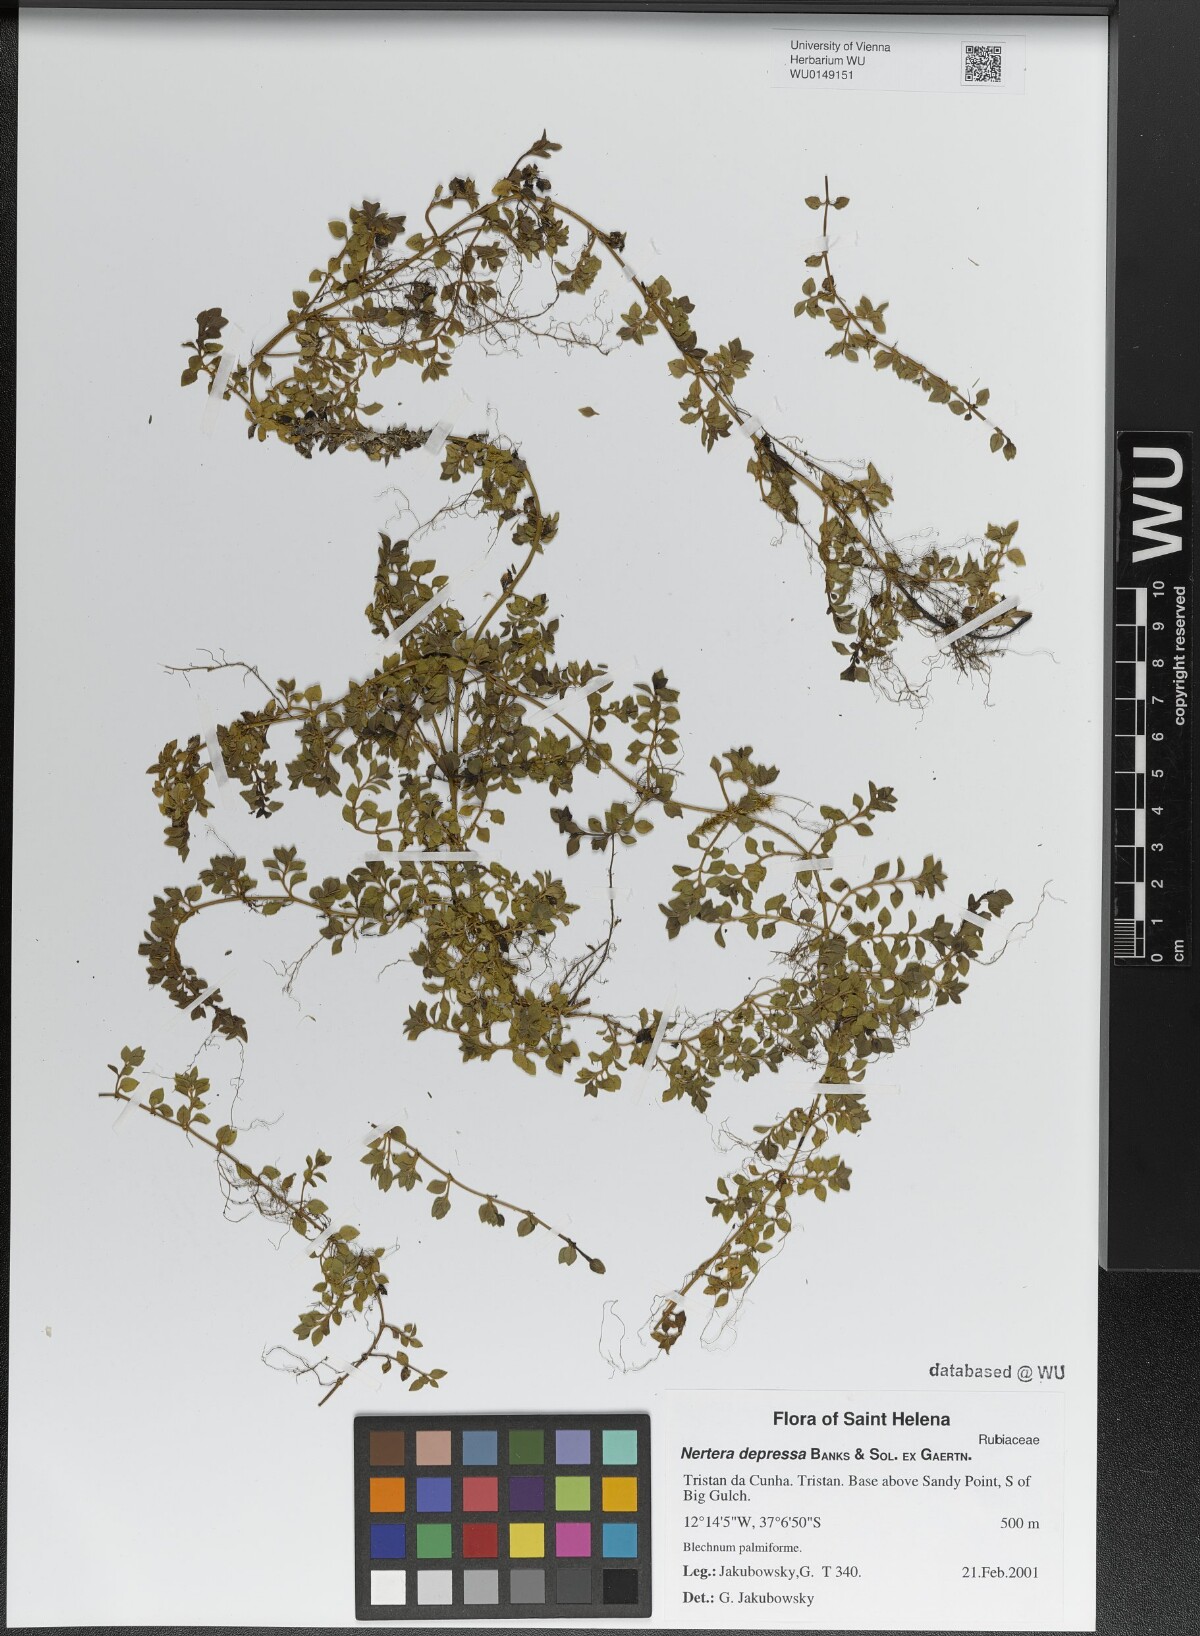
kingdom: Plantae
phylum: Tracheophyta
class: Magnoliopsida
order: Gentianales
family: Rubiaceae
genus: Nertera
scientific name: Nertera granadensis
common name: Beadplant
